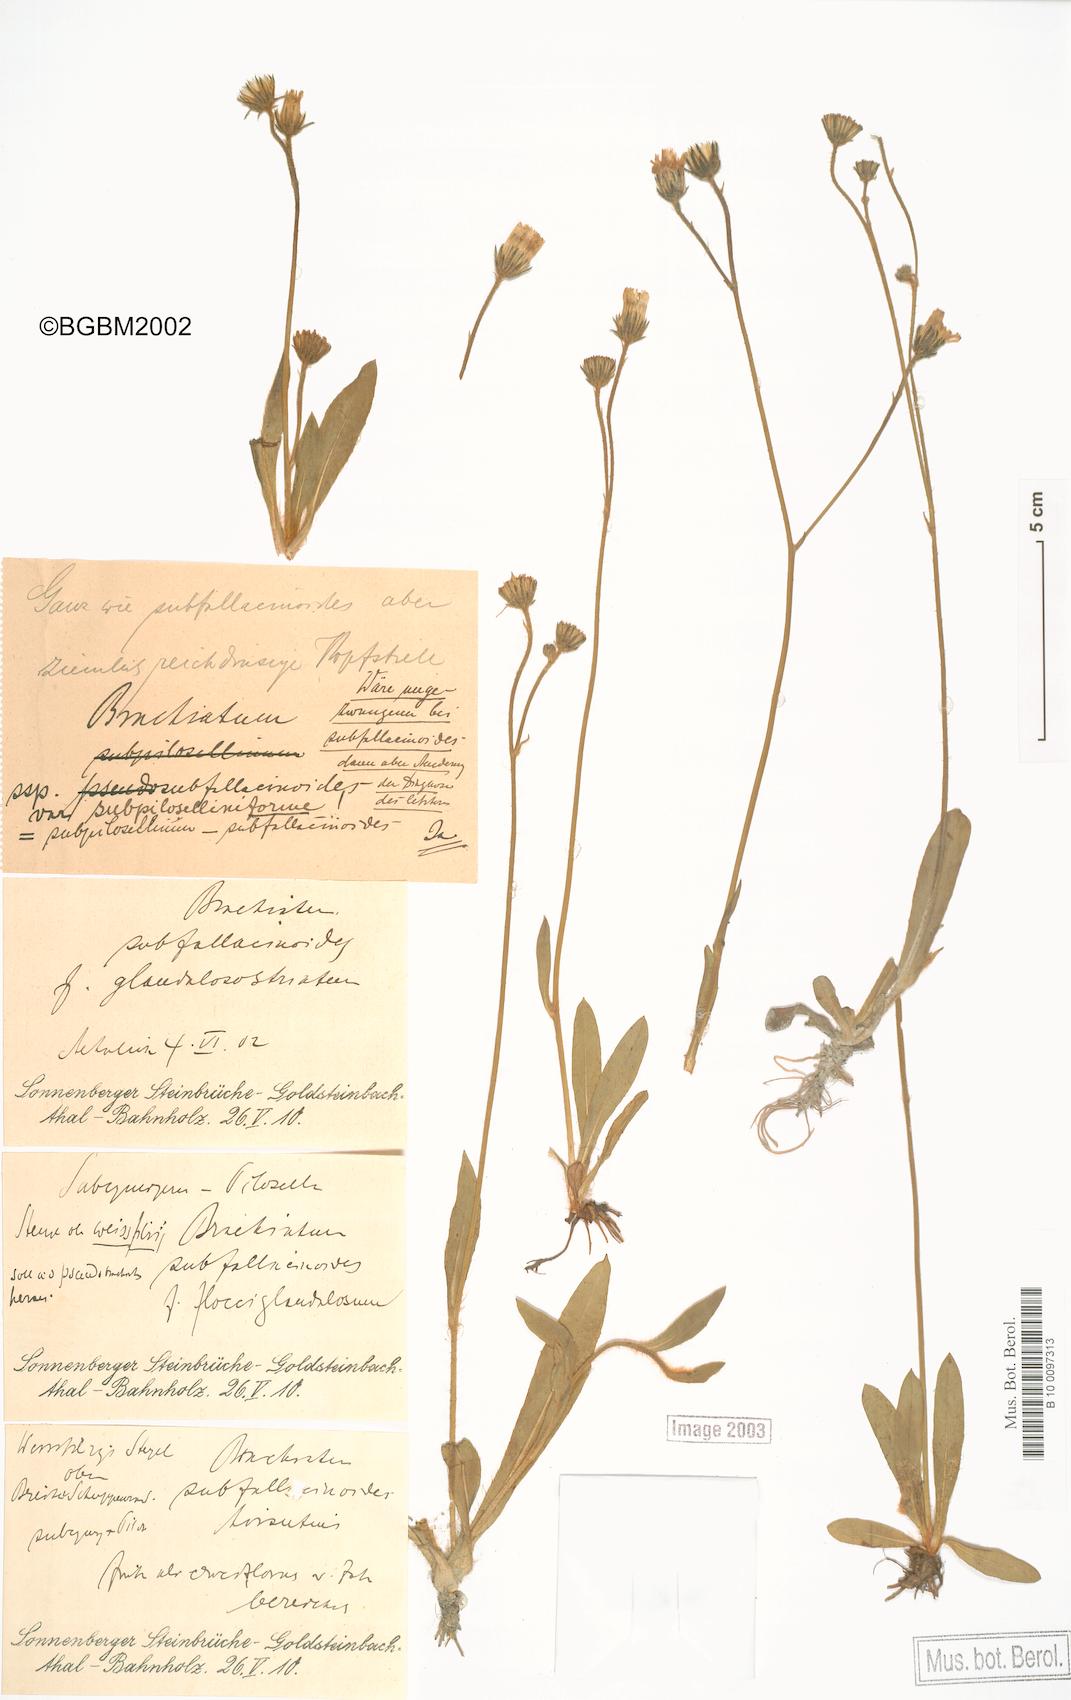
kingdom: Plantae
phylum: Tracheophyta
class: Magnoliopsida
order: Asterales
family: Asteraceae
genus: Pilosella
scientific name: Pilosella acutifolia
